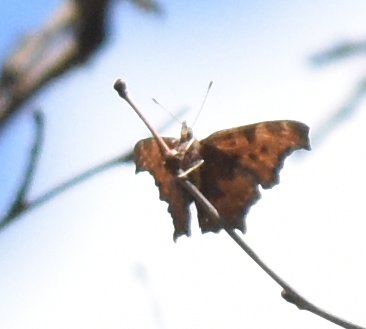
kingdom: Animalia
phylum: Arthropoda
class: Insecta
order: Lepidoptera
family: Nymphalidae
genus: Polygonia
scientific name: Polygonia comma
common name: Eastern Comma
